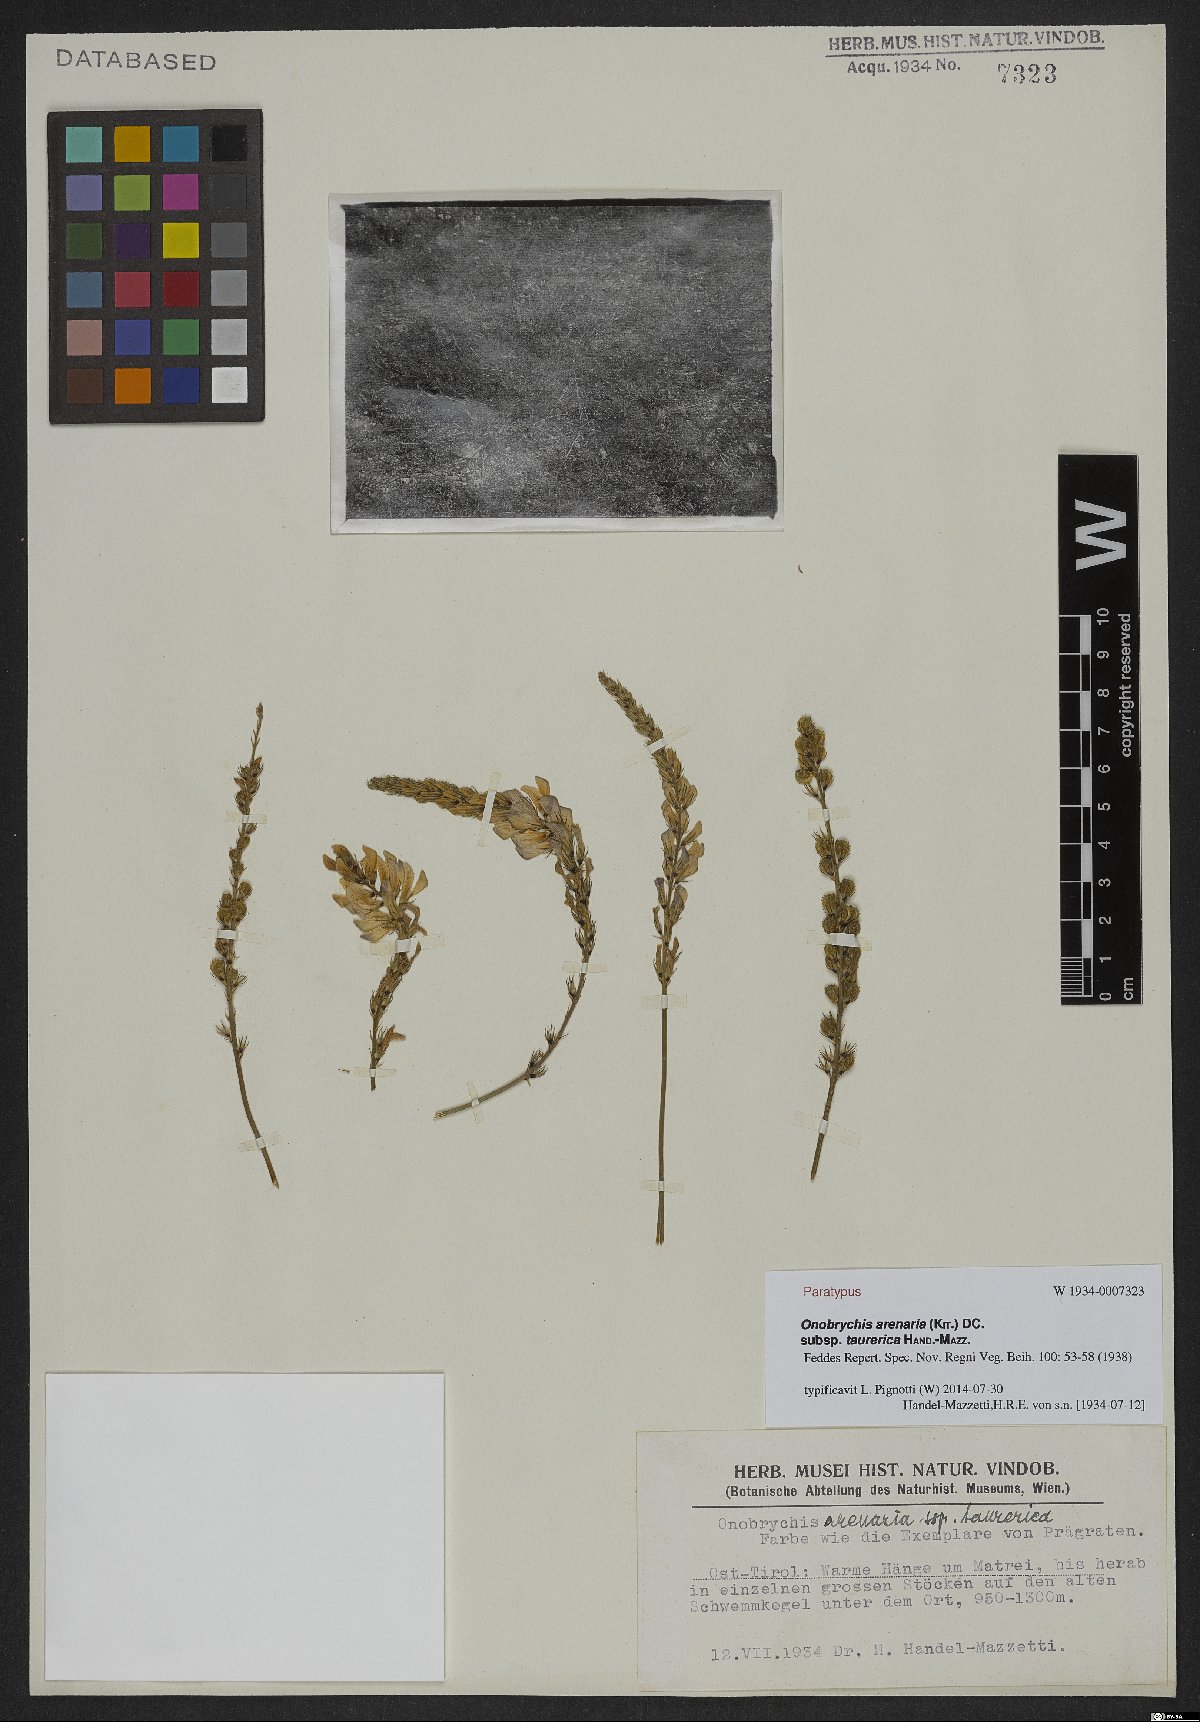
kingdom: Plantae
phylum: Tracheophyta
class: Magnoliopsida
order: Fabales
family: Fabaceae
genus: Onobrychis
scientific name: Onobrychis arenaria
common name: Sand esparcet
